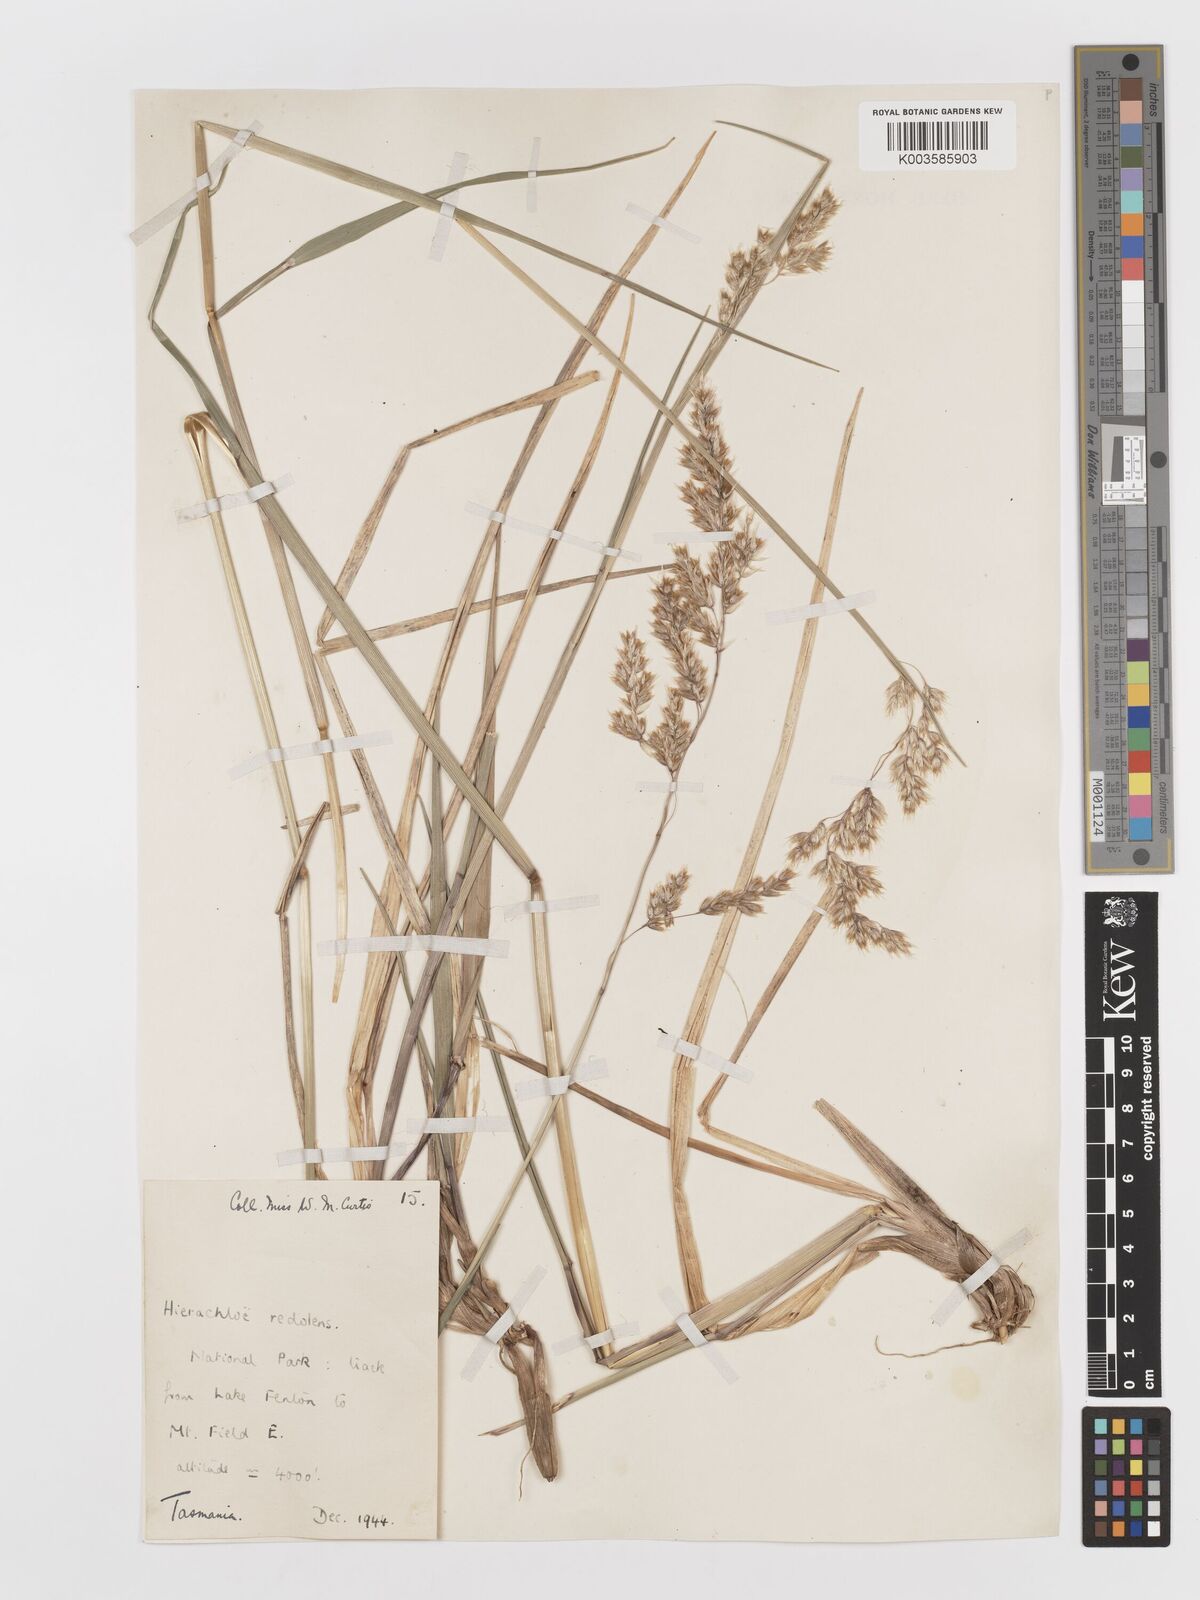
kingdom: Plantae
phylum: Tracheophyta
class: Liliopsida
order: Poales
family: Poaceae
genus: Anthoxanthum
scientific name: Anthoxanthum redolens
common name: Sweet holy grass
